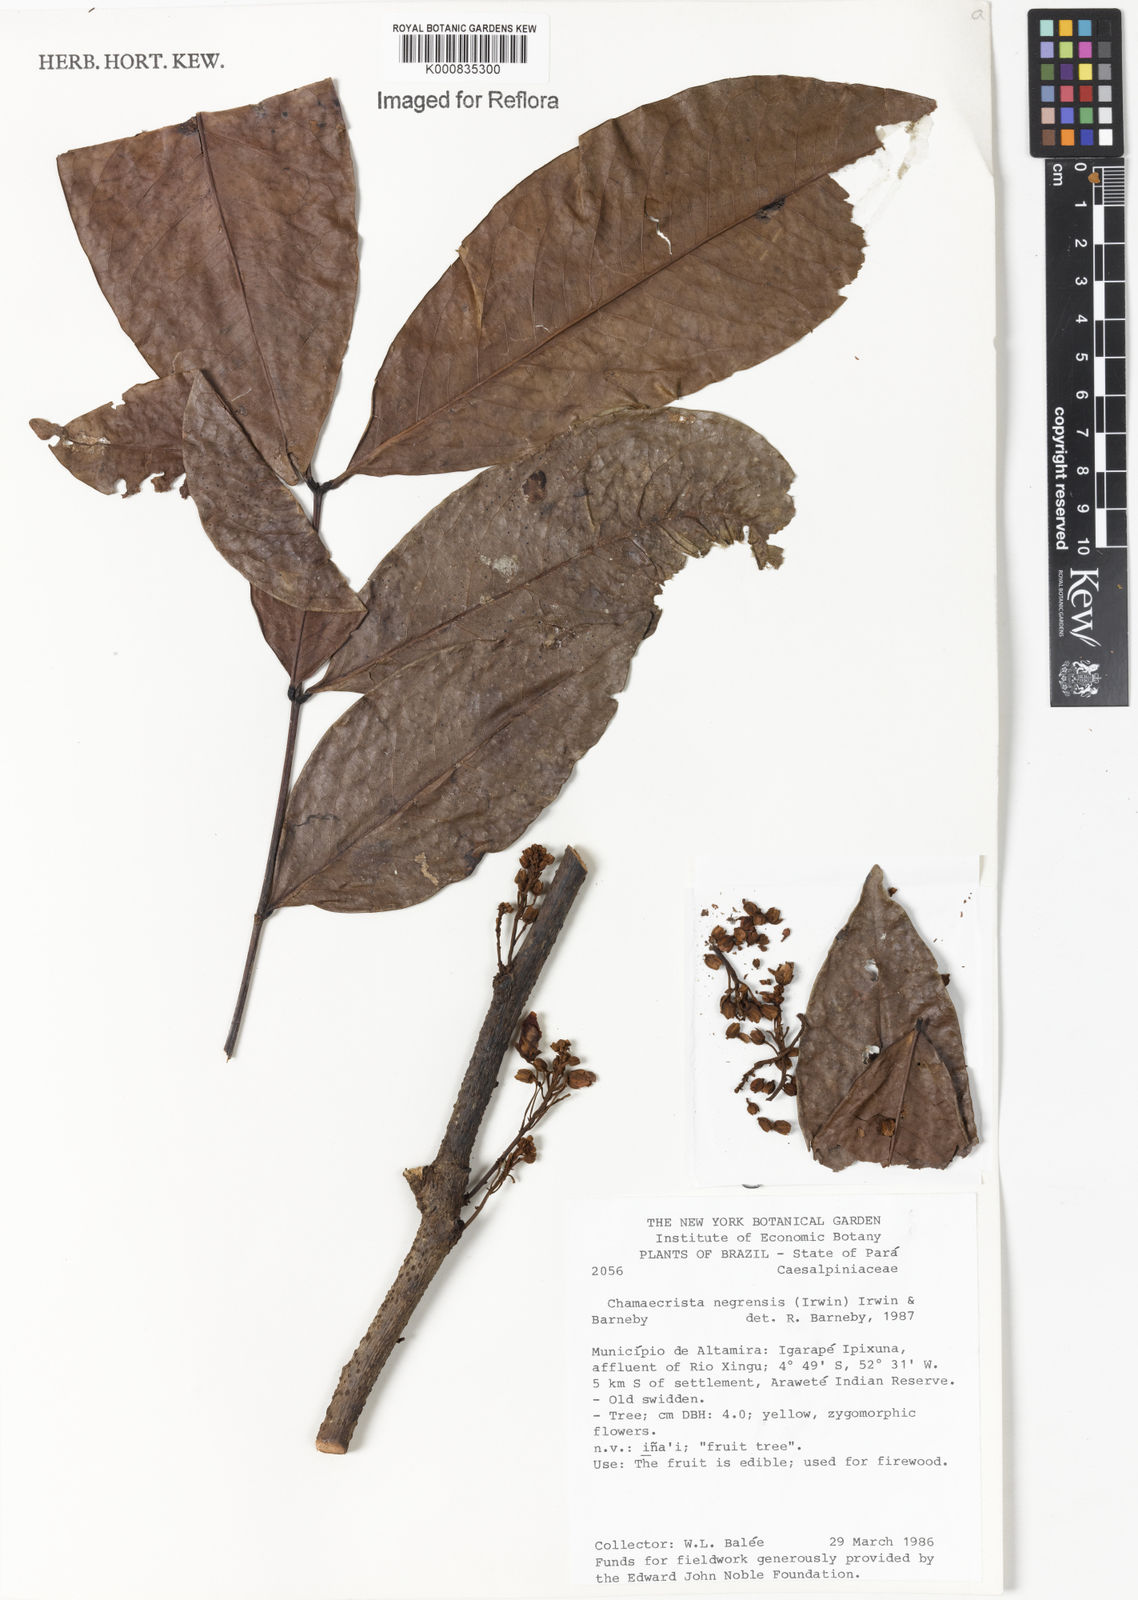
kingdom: Plantae
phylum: Tracheophyta
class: Magnoliopsida
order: Fabales
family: Fabaceae
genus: Chamaecrista
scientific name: Chamaecrista negrensis
